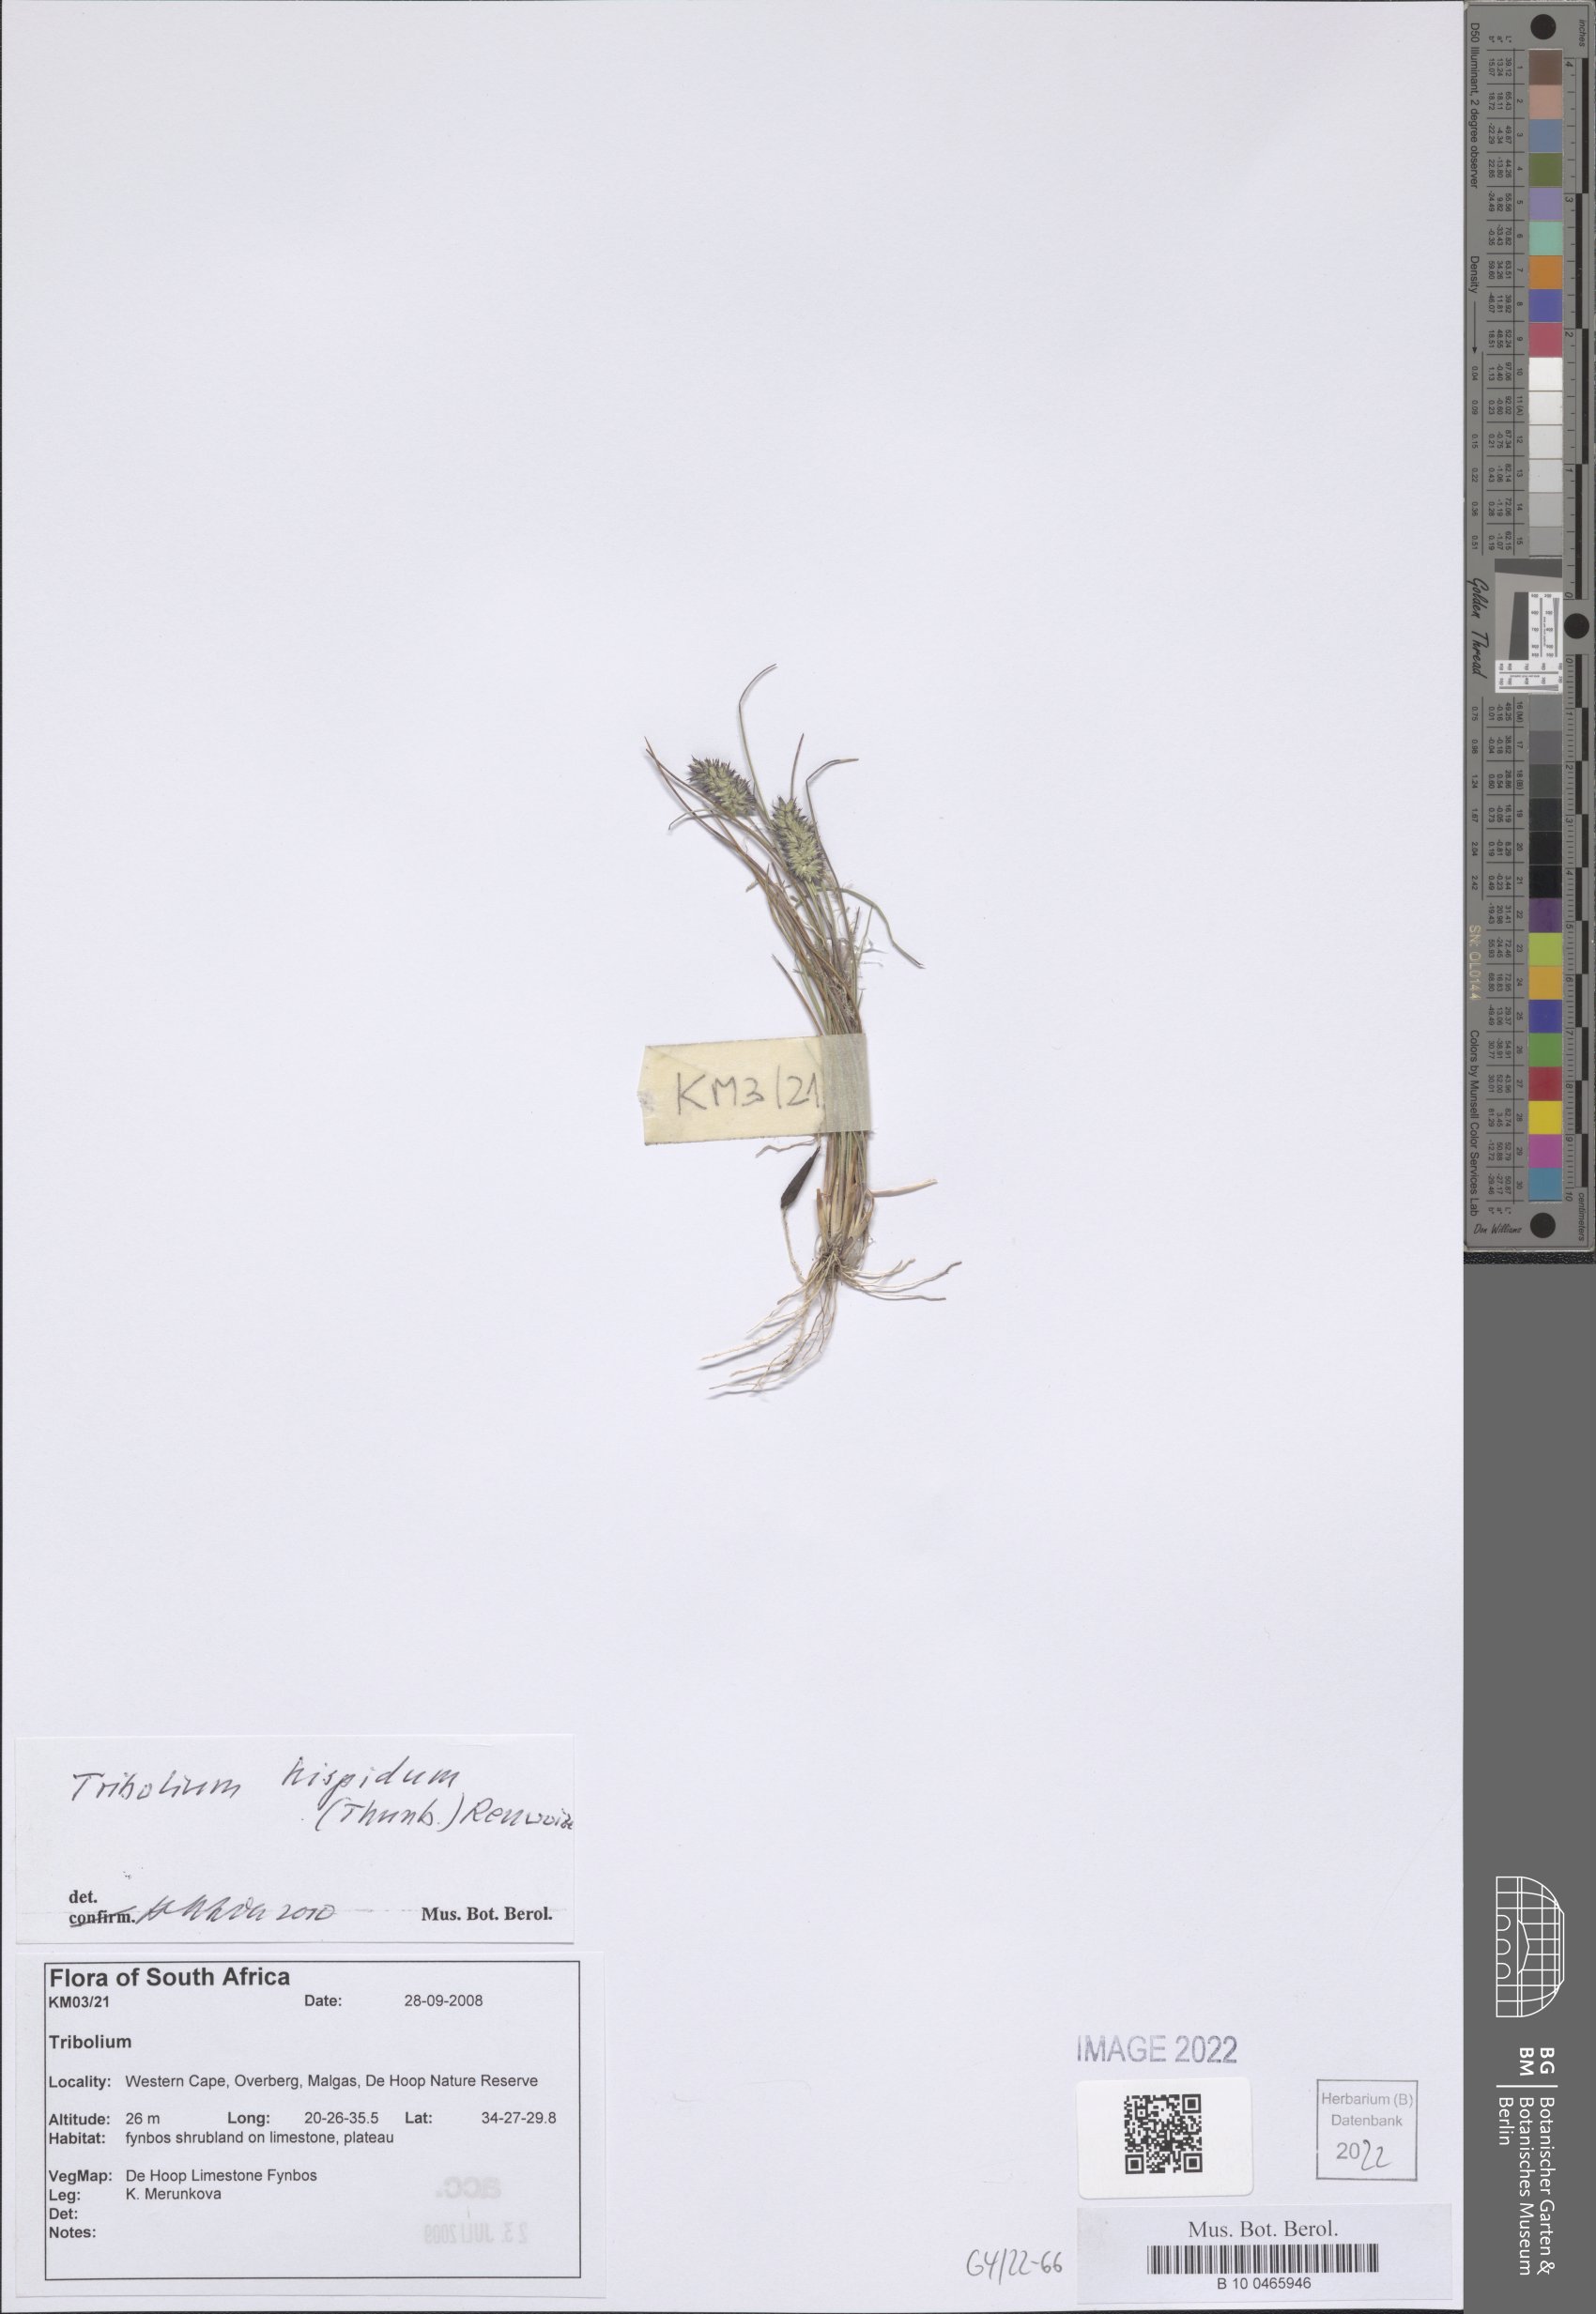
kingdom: Plantae
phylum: Tracheophyta
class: Liliopsida
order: Poales
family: Poaceae
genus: Tribolium
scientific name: Tribolium hispidum
